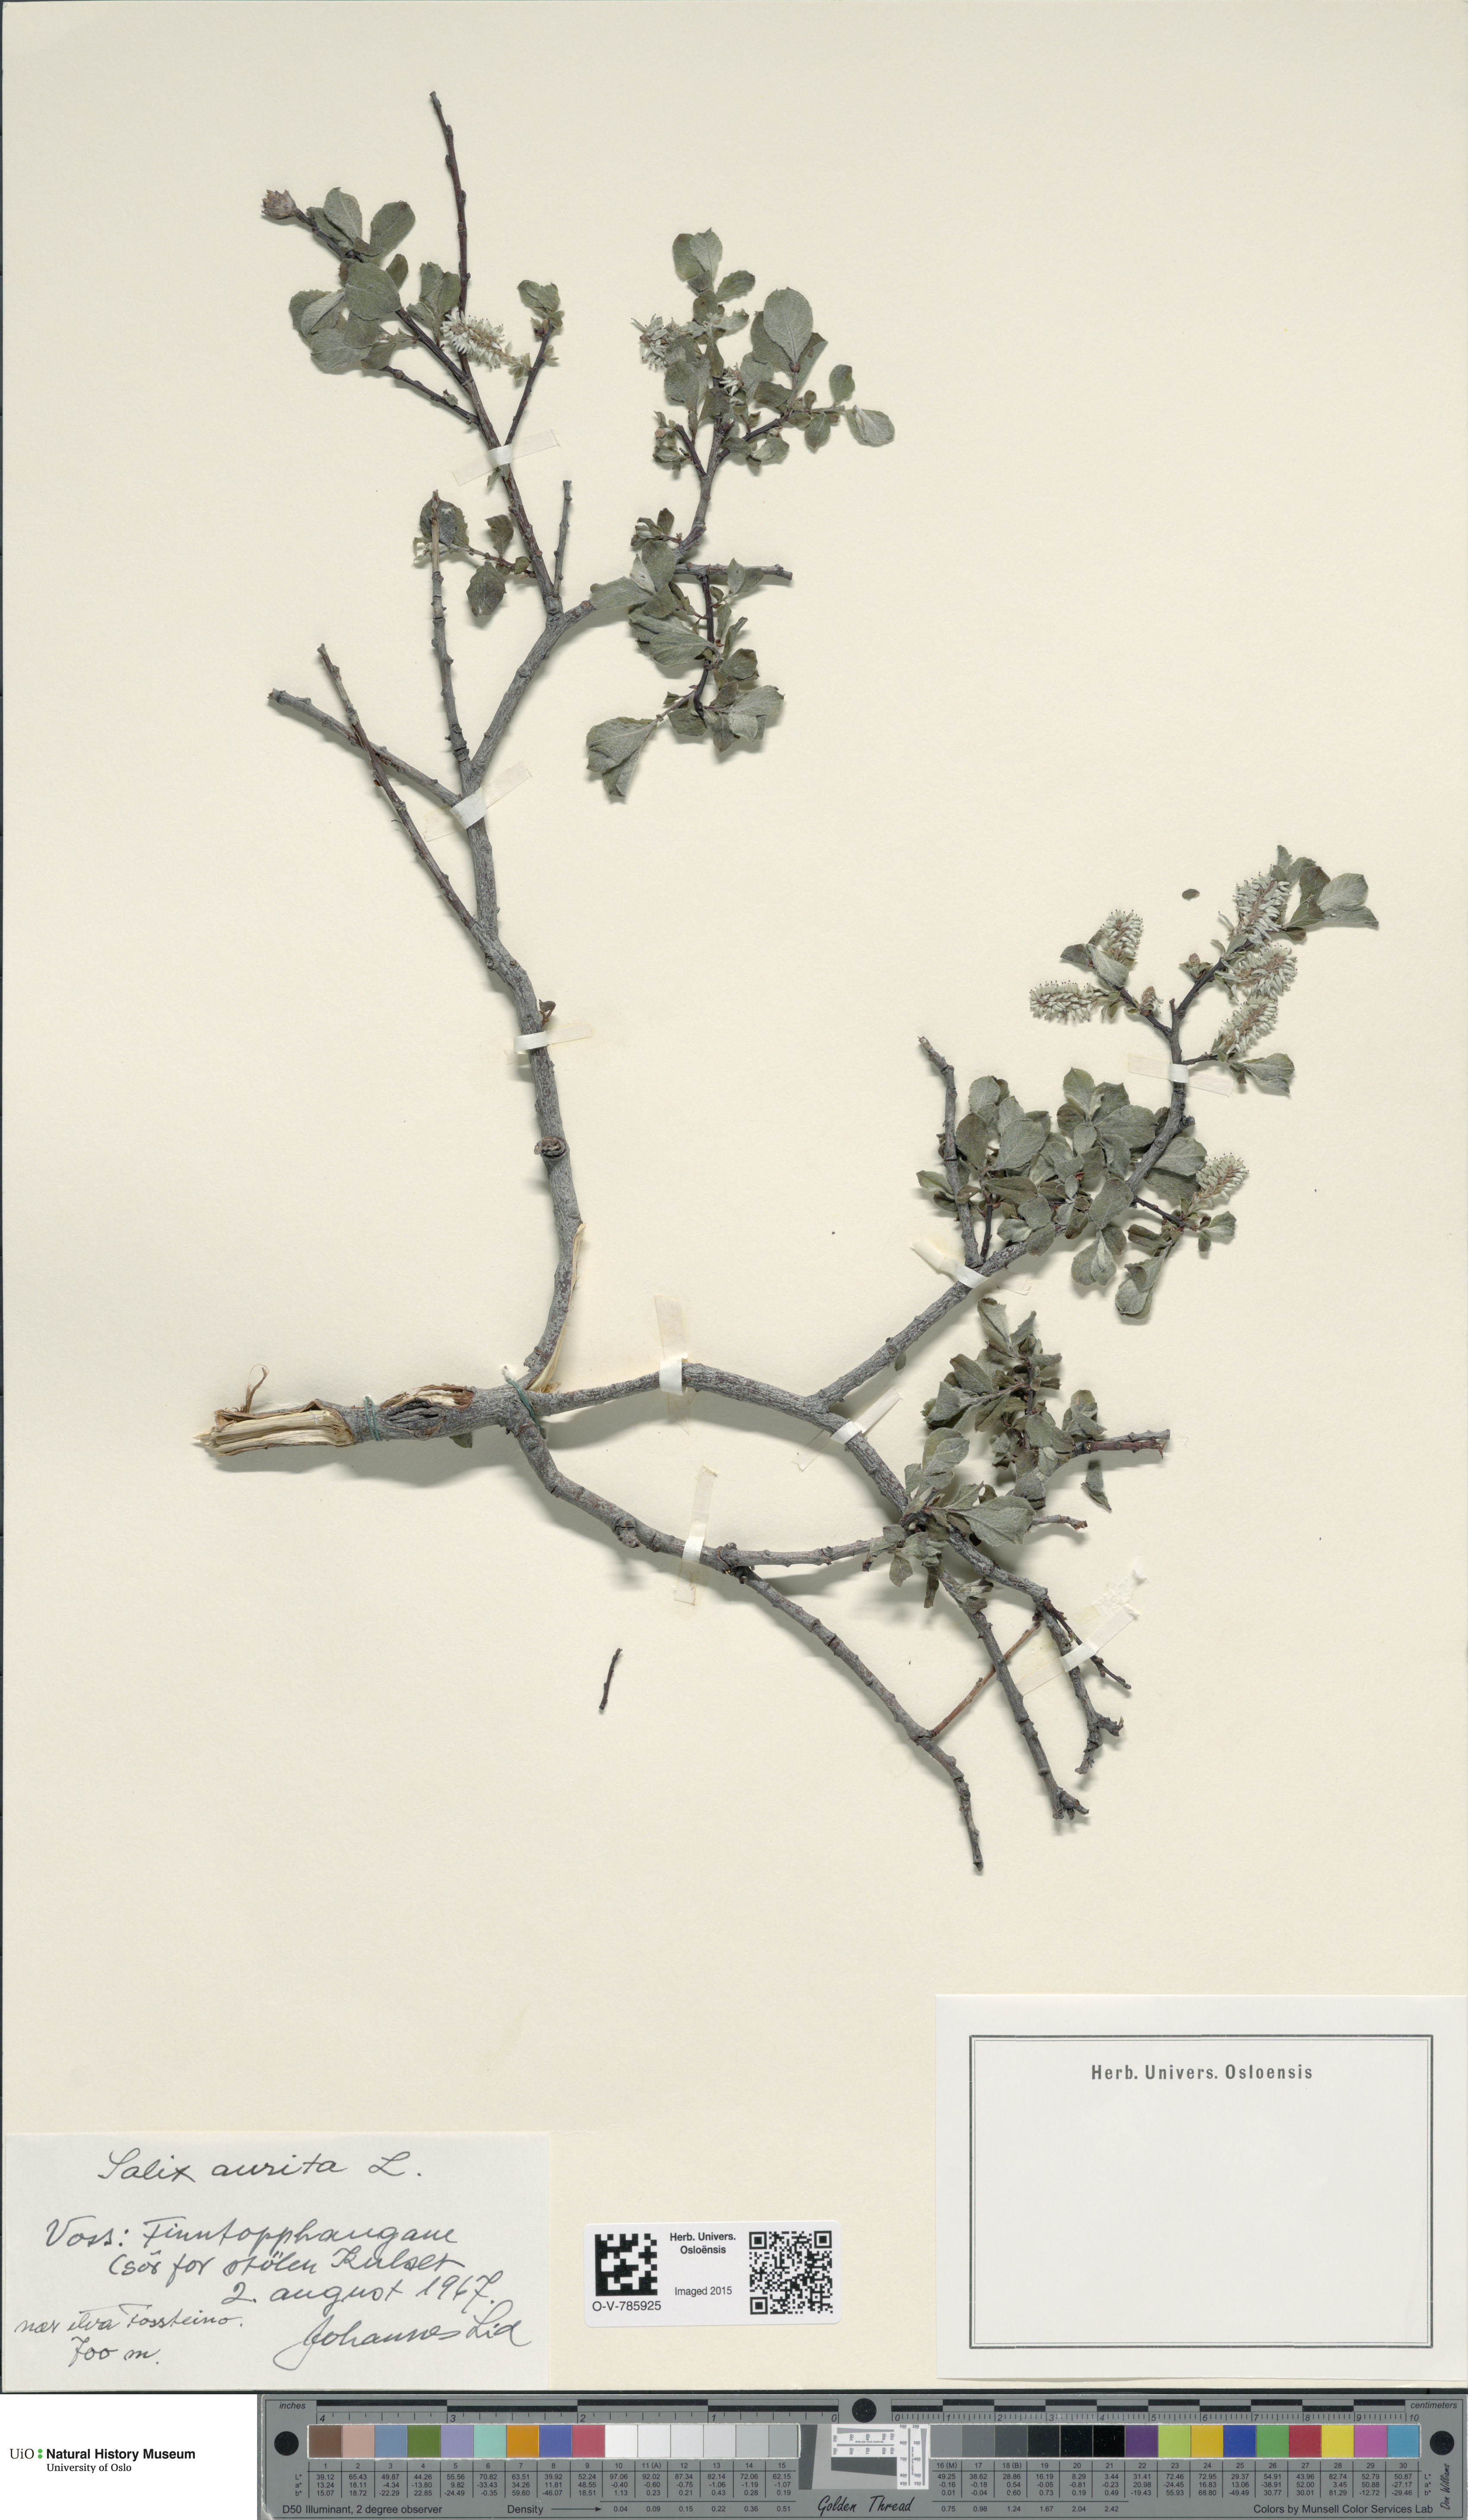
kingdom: Plantae
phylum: Tracheophyta
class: Magnoliopsida
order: Malpighiales
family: Salicaceae
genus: Salix
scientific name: Salix aurita
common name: Eared willow
